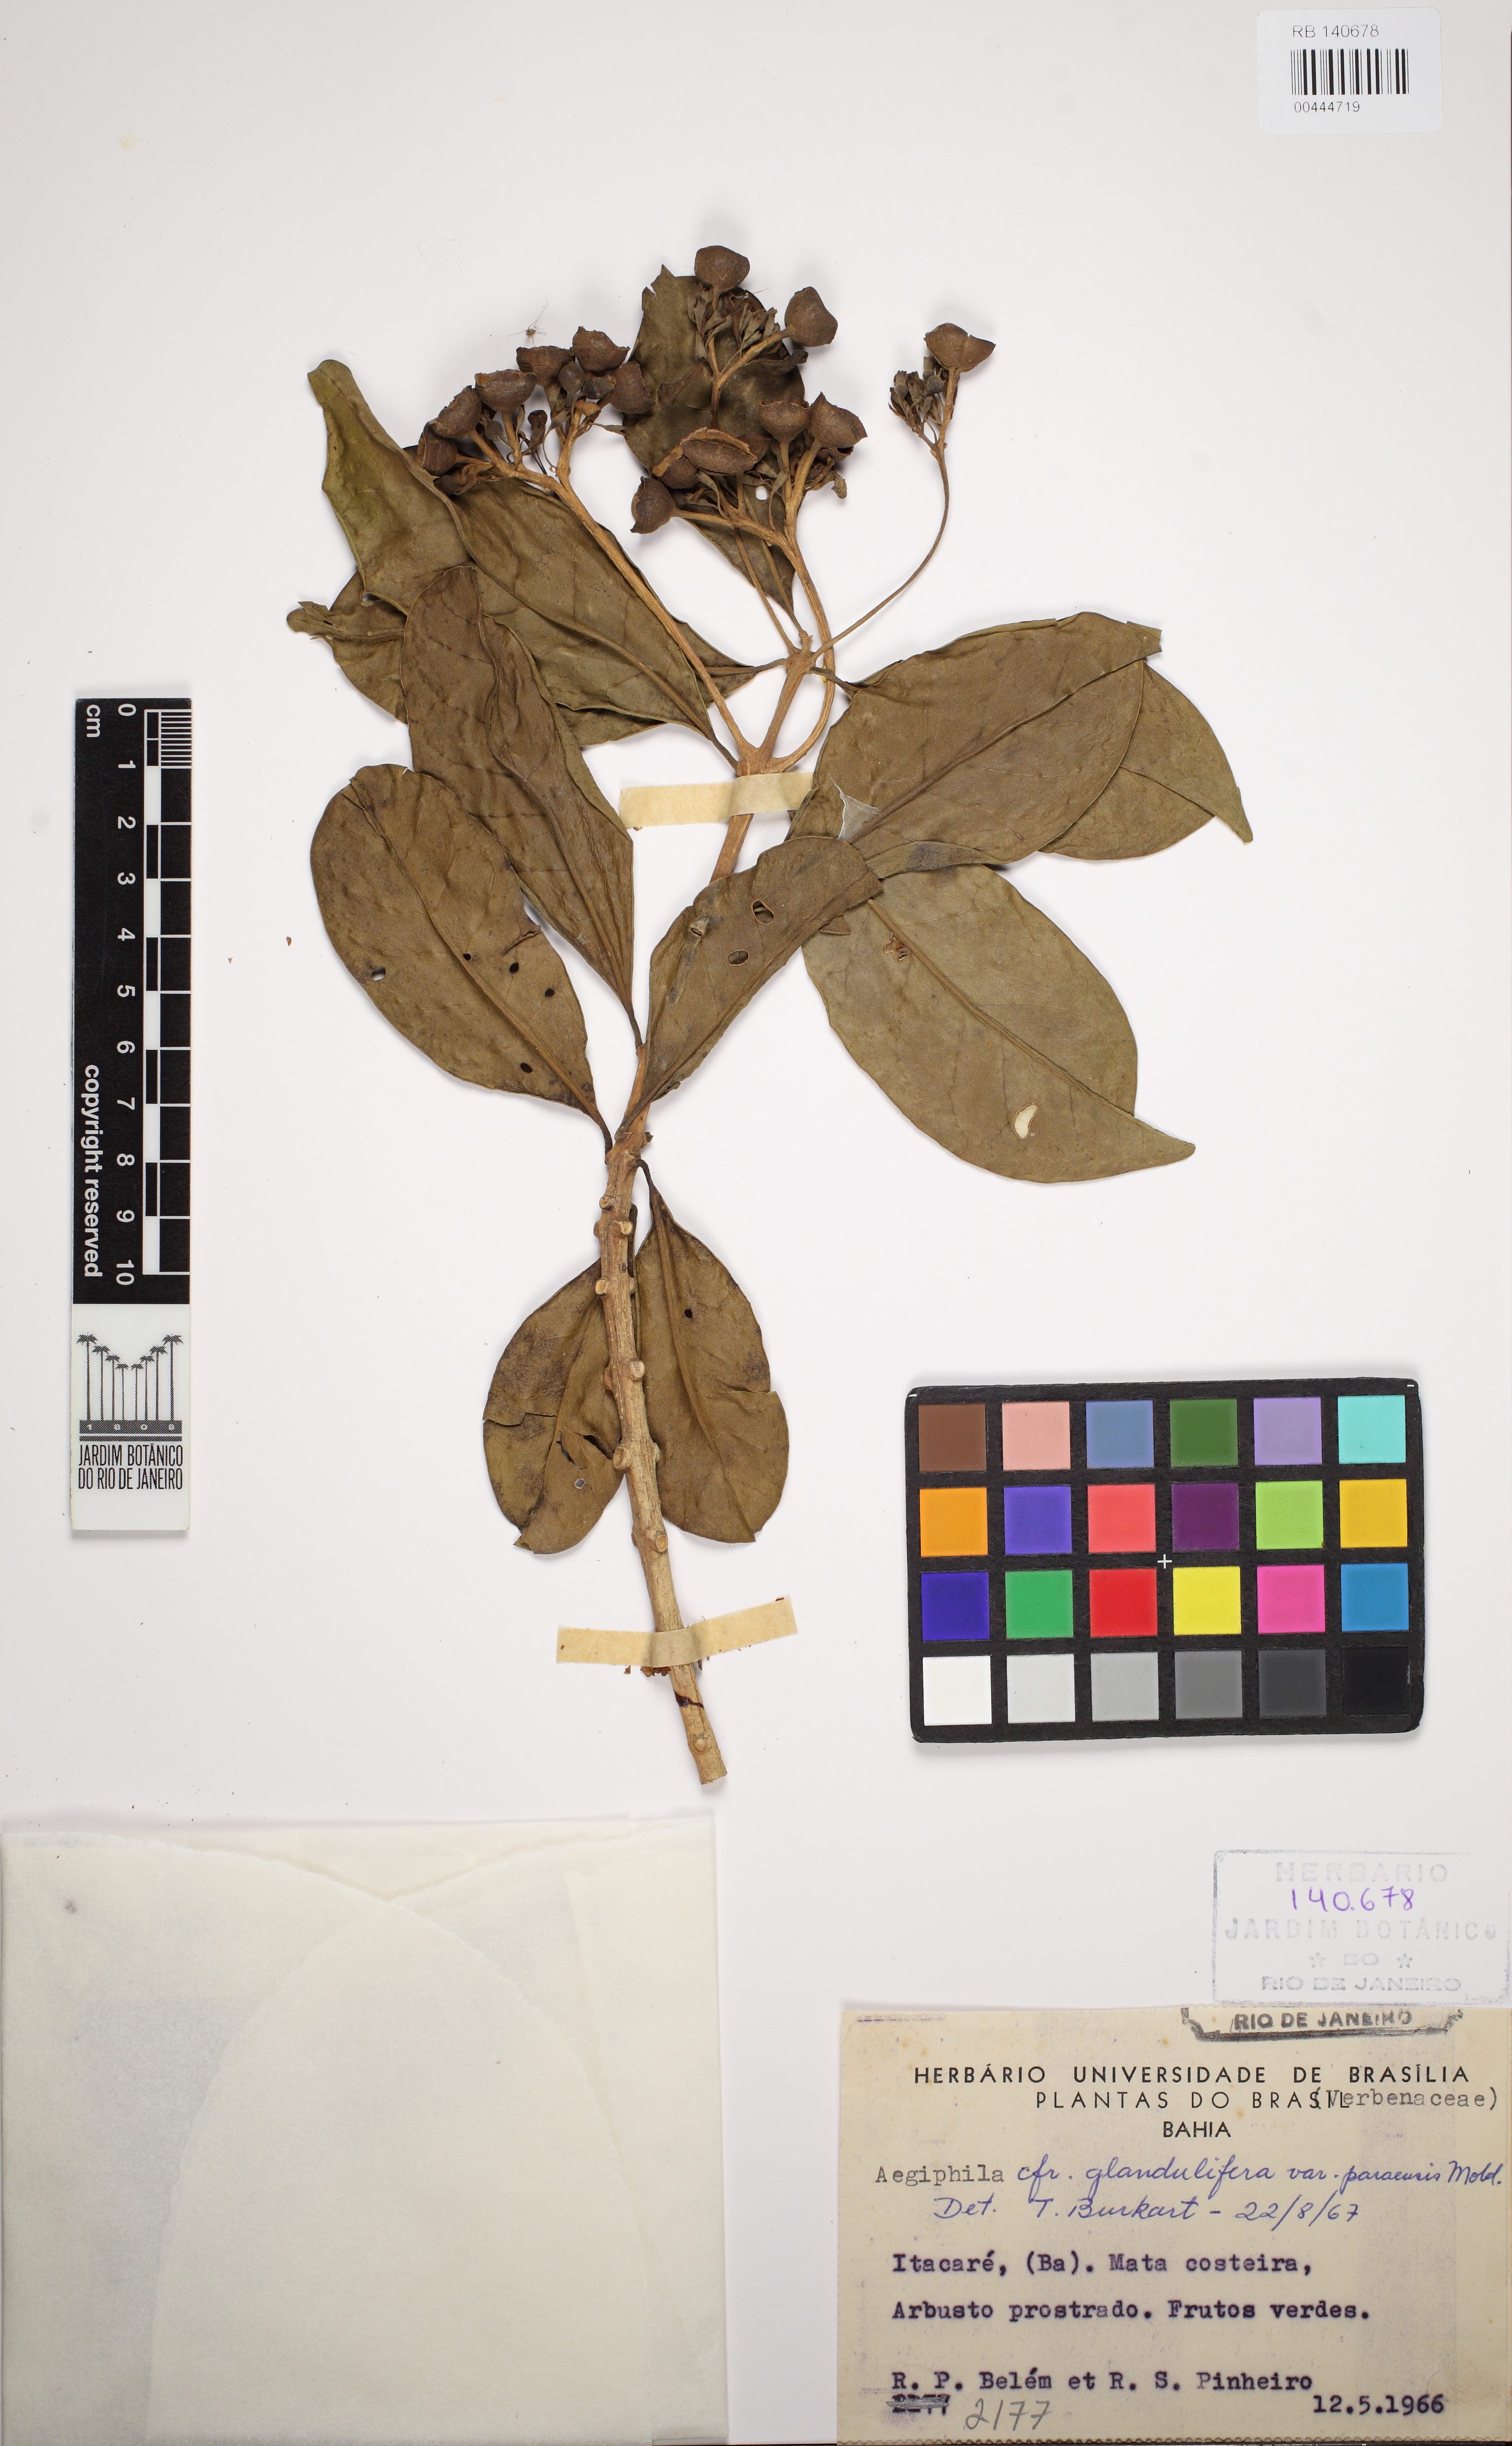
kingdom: Plantae
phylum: Tracheophyta
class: Magnoliopsida
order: Lamiales
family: Lamiaceae
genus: Aegiphila
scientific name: Aegiphila panamensis
